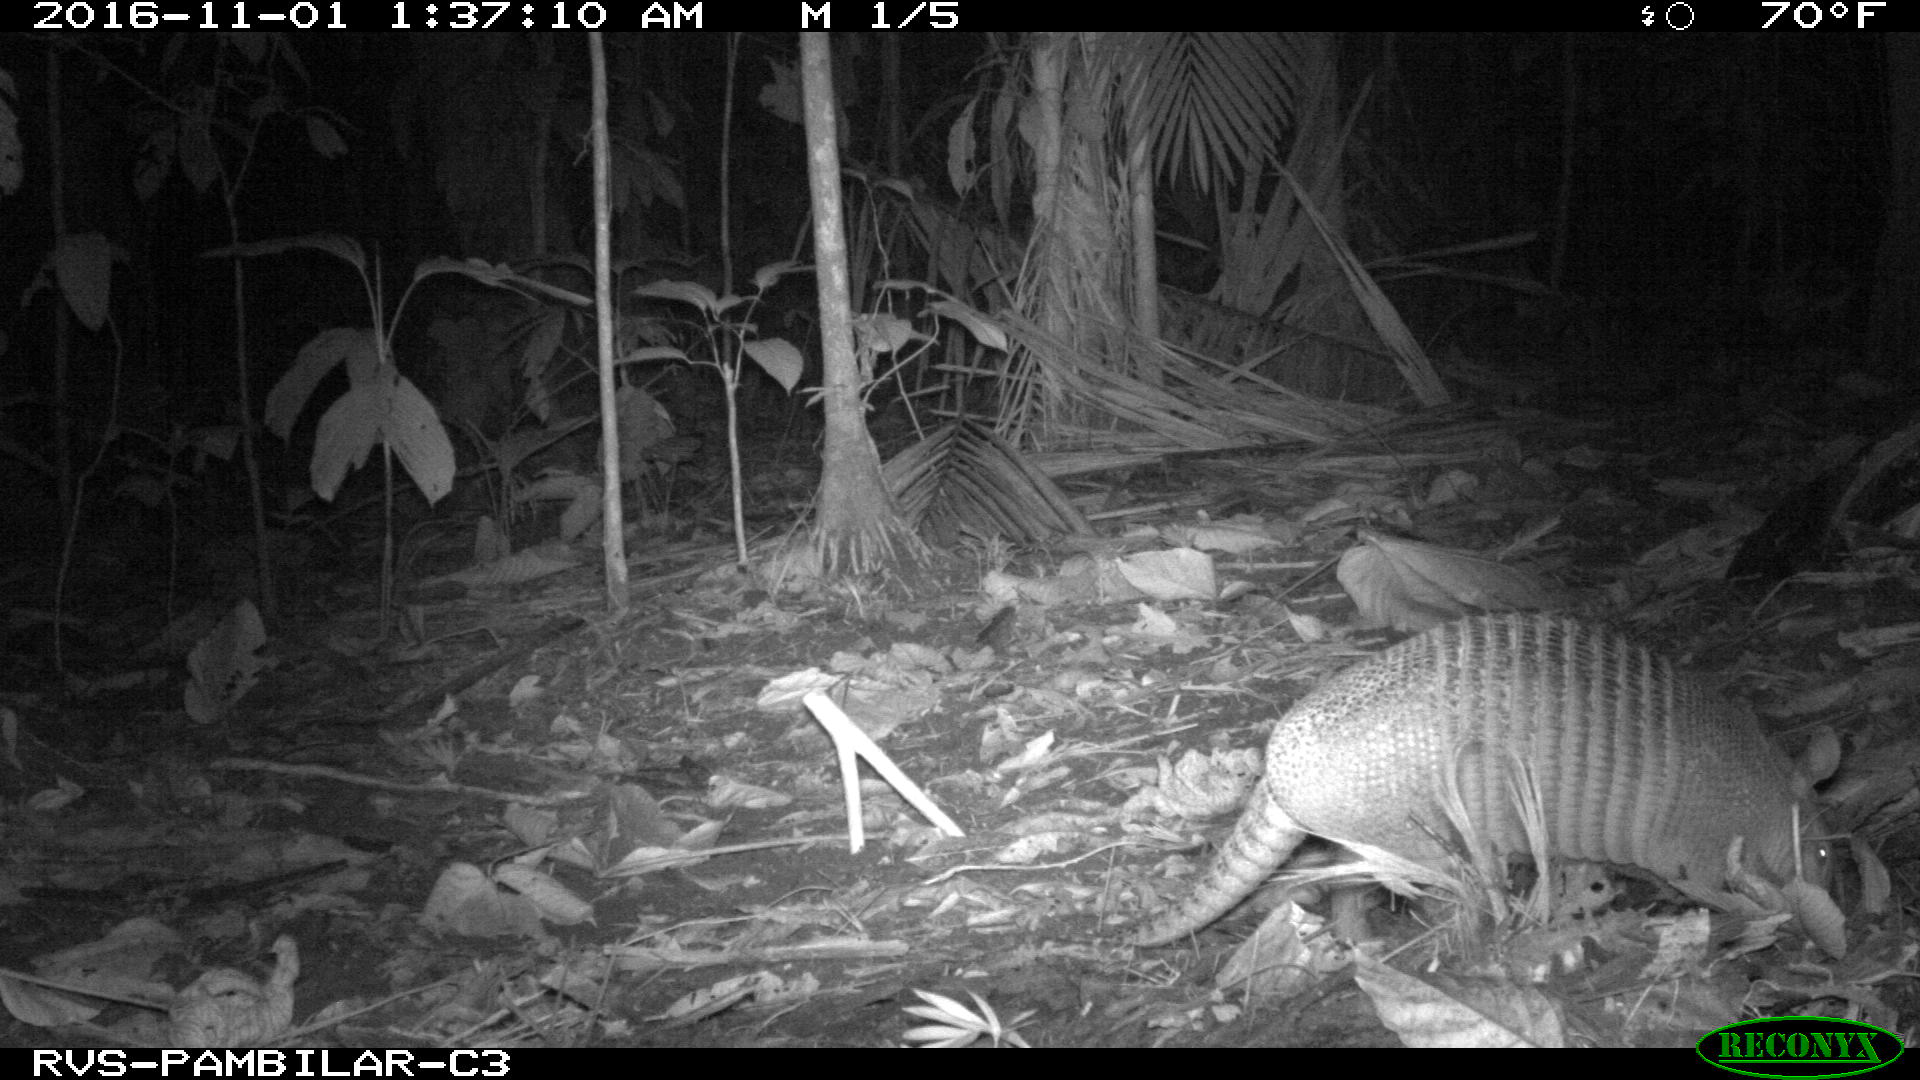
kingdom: Animalia
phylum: Chordata
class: Mammalia
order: Cingulata
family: Dasypodidae
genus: Dasypus
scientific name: Dasypus novemcinctus
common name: Nine-banded armadillo
